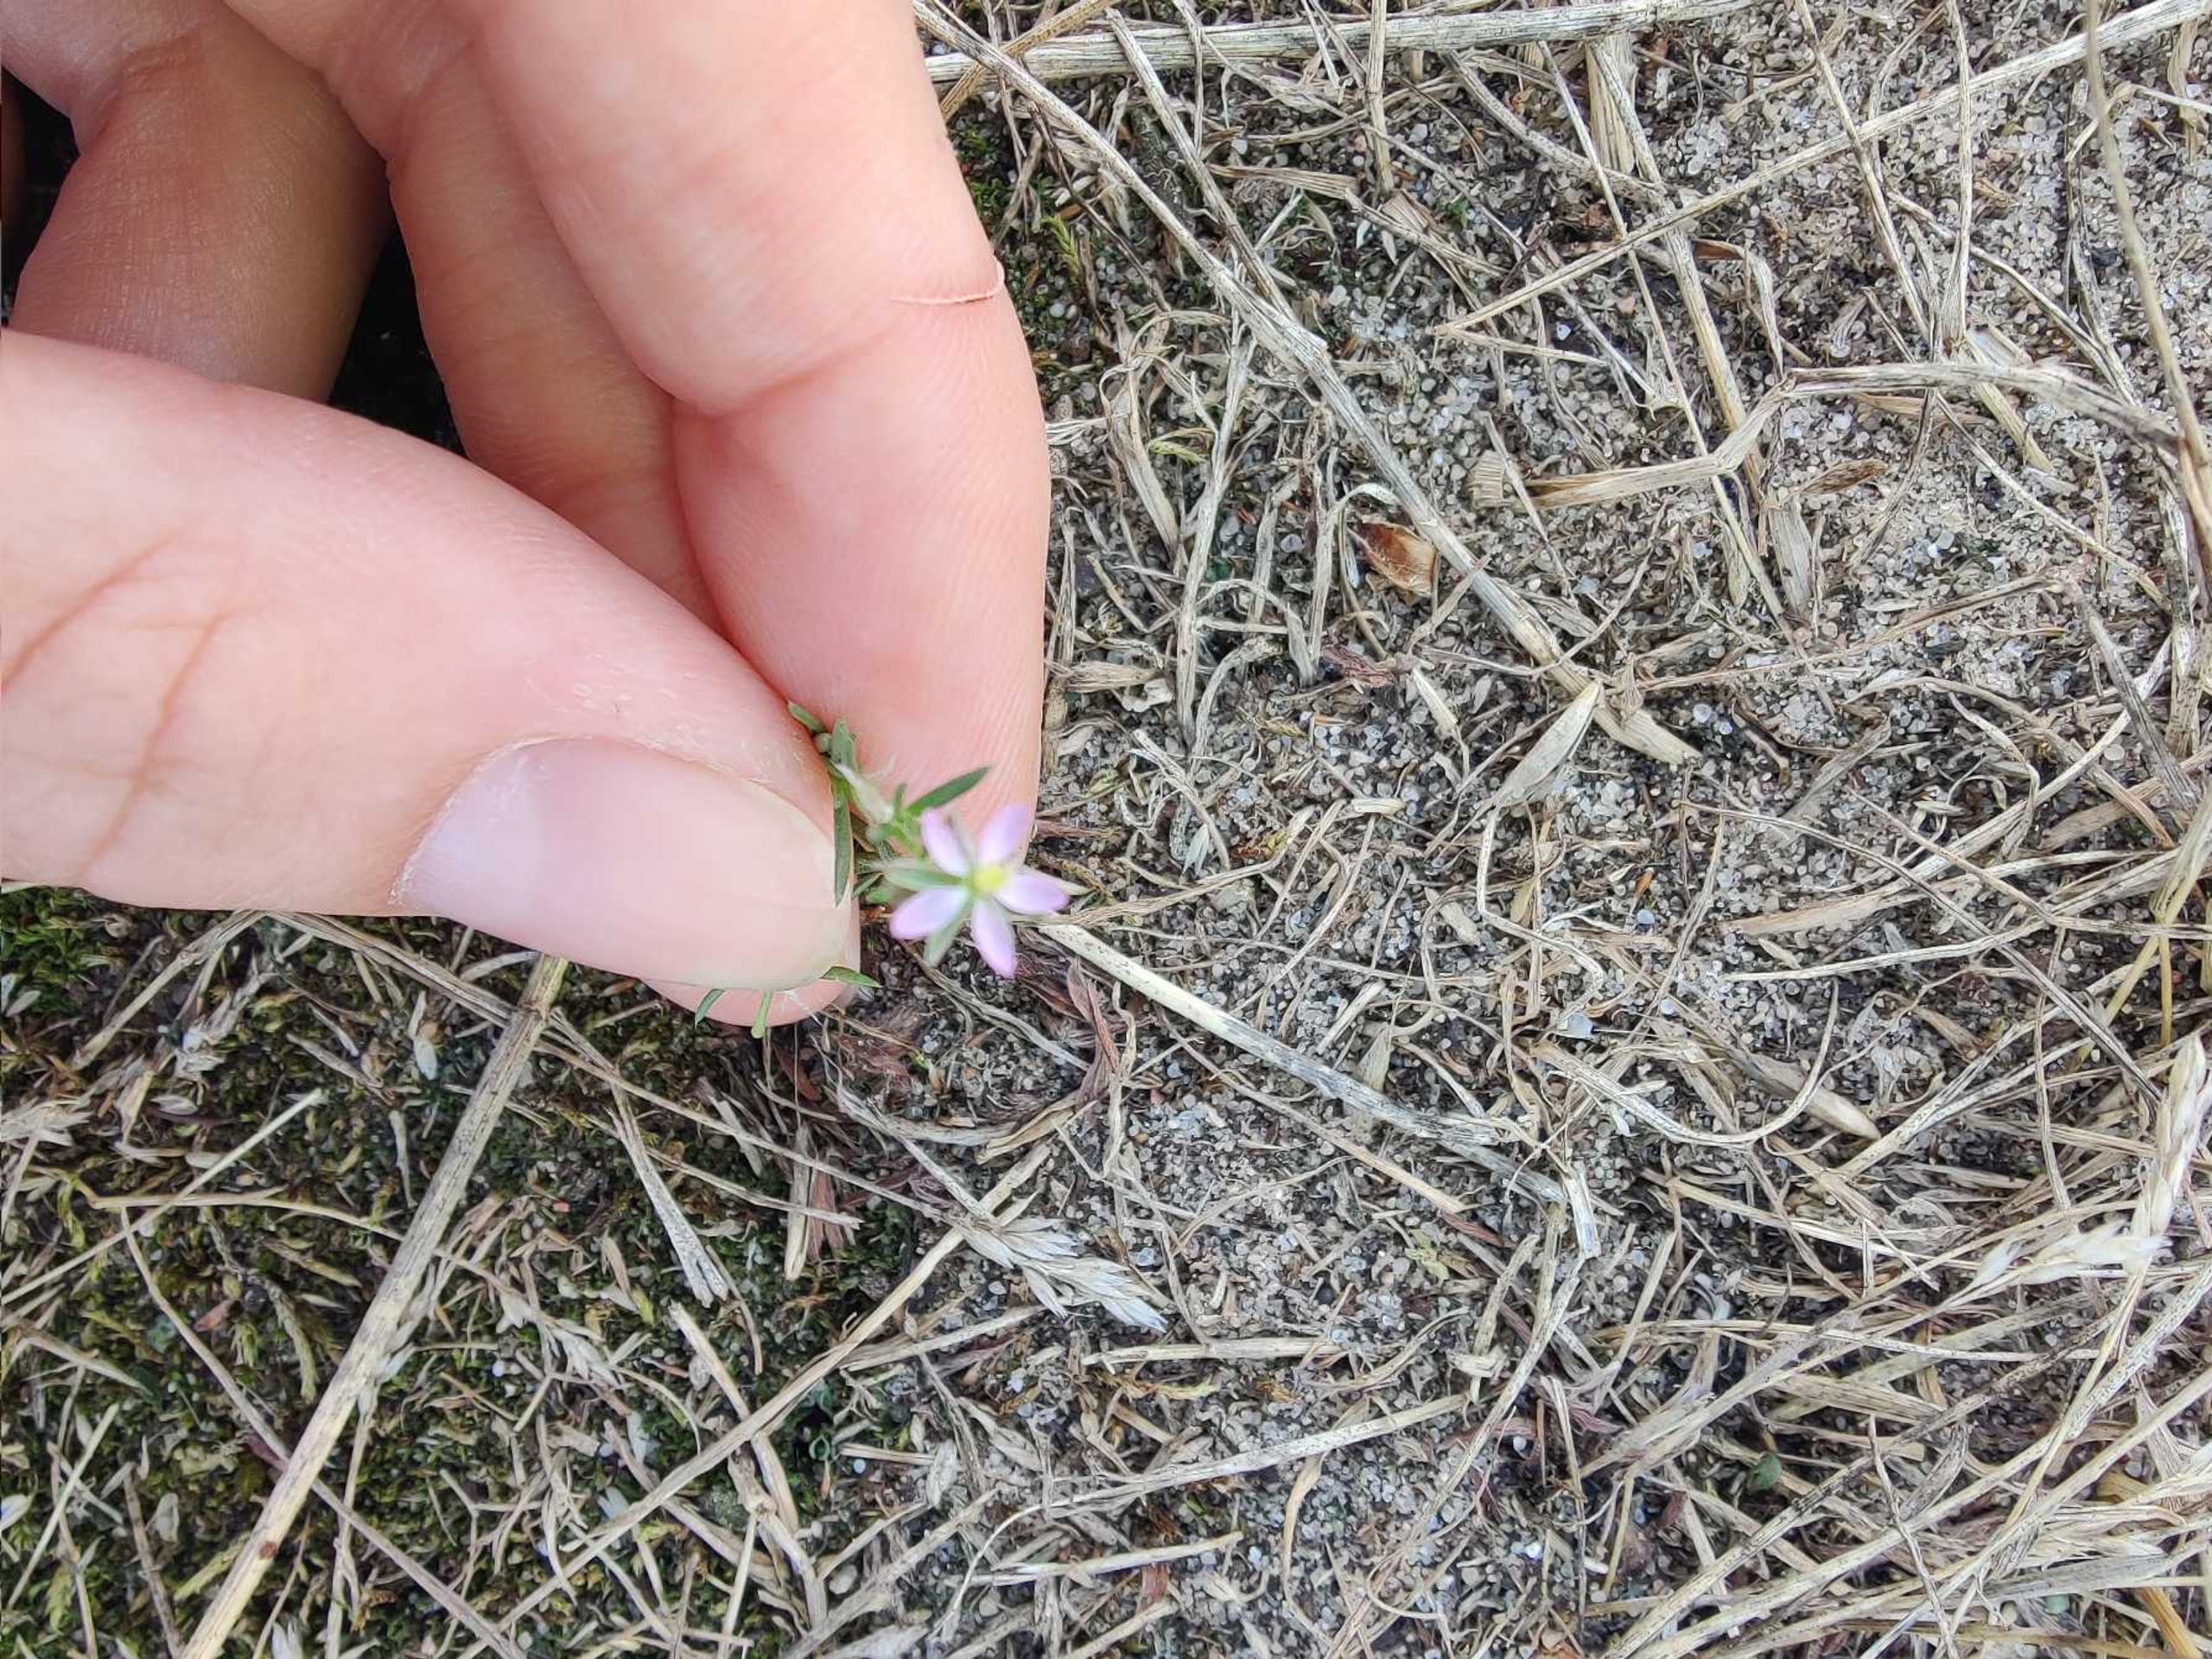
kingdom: Plantae
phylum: Tracheophyta
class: Magnoliopsida
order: Caryophyllales
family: Caryophyllaceae
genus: Spergularia
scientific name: Spergularia rubra
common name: Mark-hindeknæ
